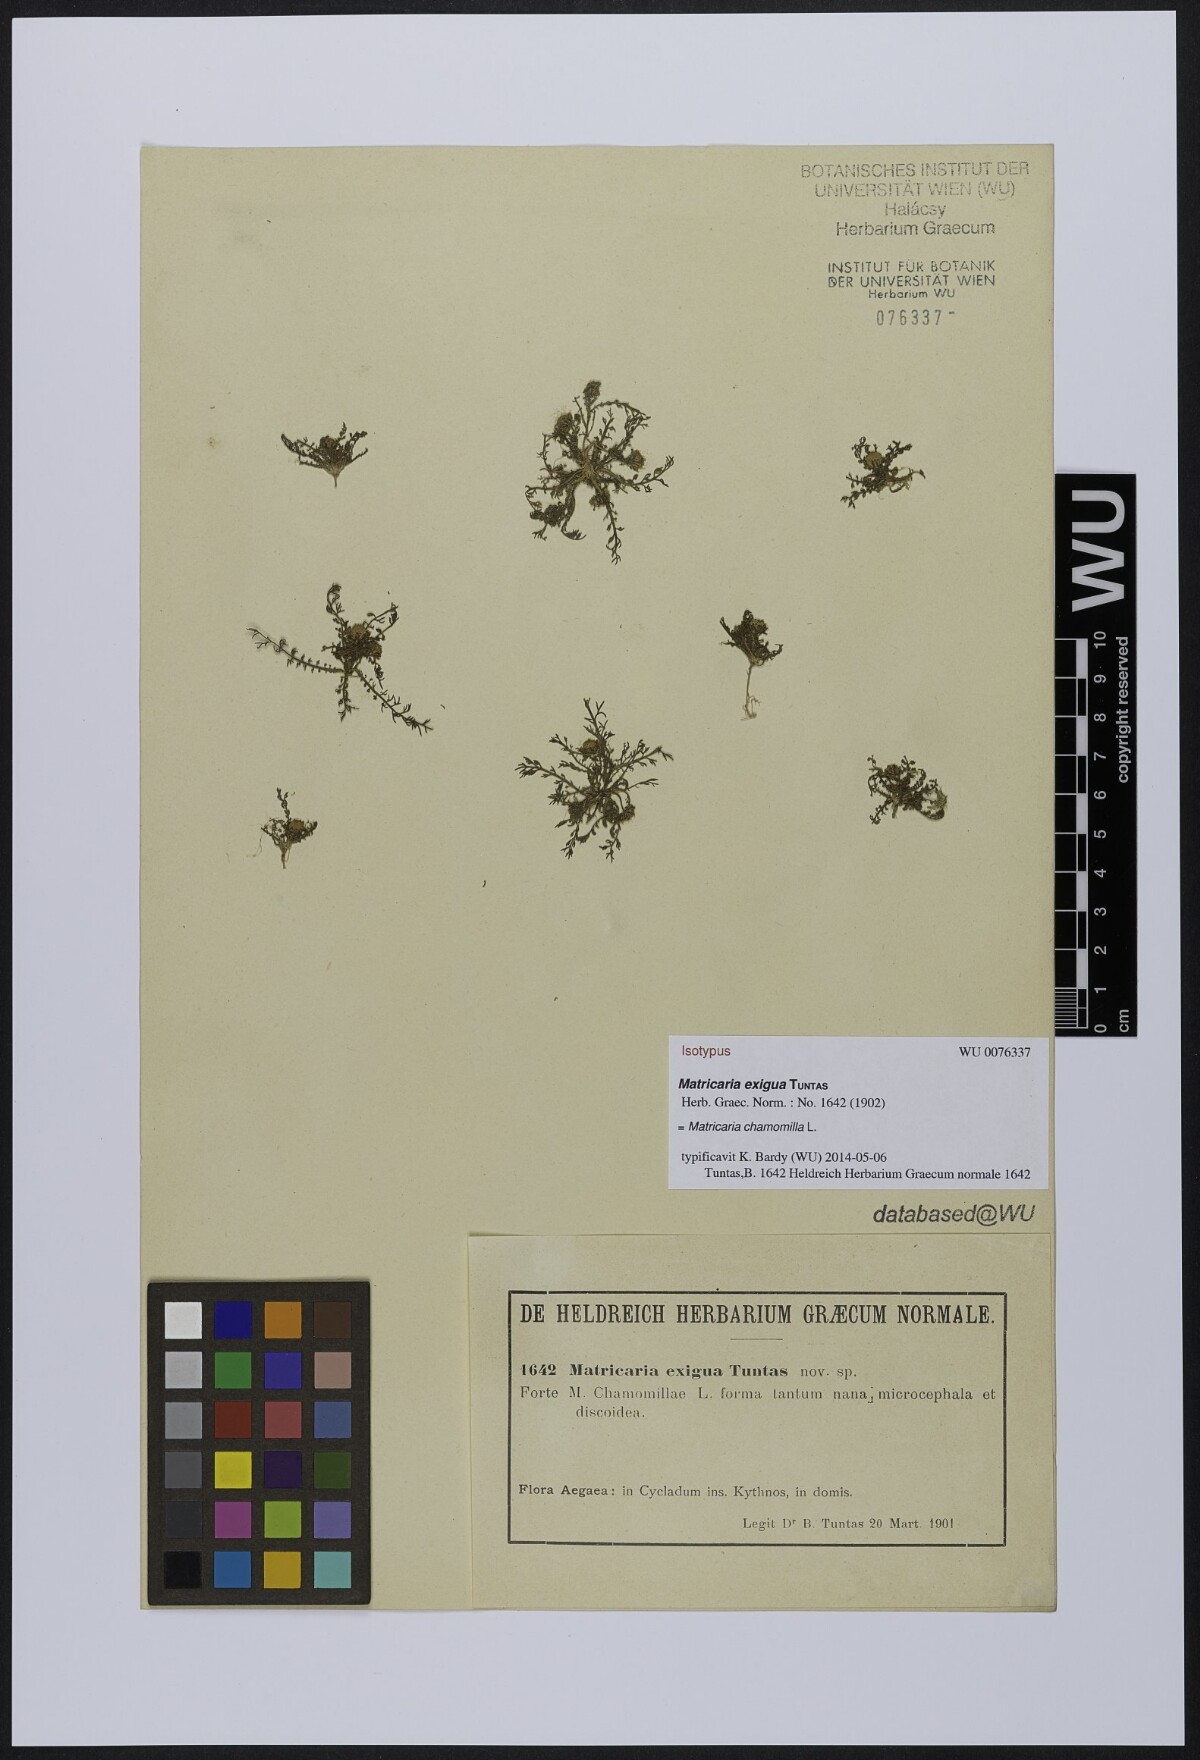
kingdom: Plantae
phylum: Tracheophyta
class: Magnoliopsida
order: Asterales
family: Asteraceae
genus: Matricaria
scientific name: Matricaria chamomilla
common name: Scented mayweed
